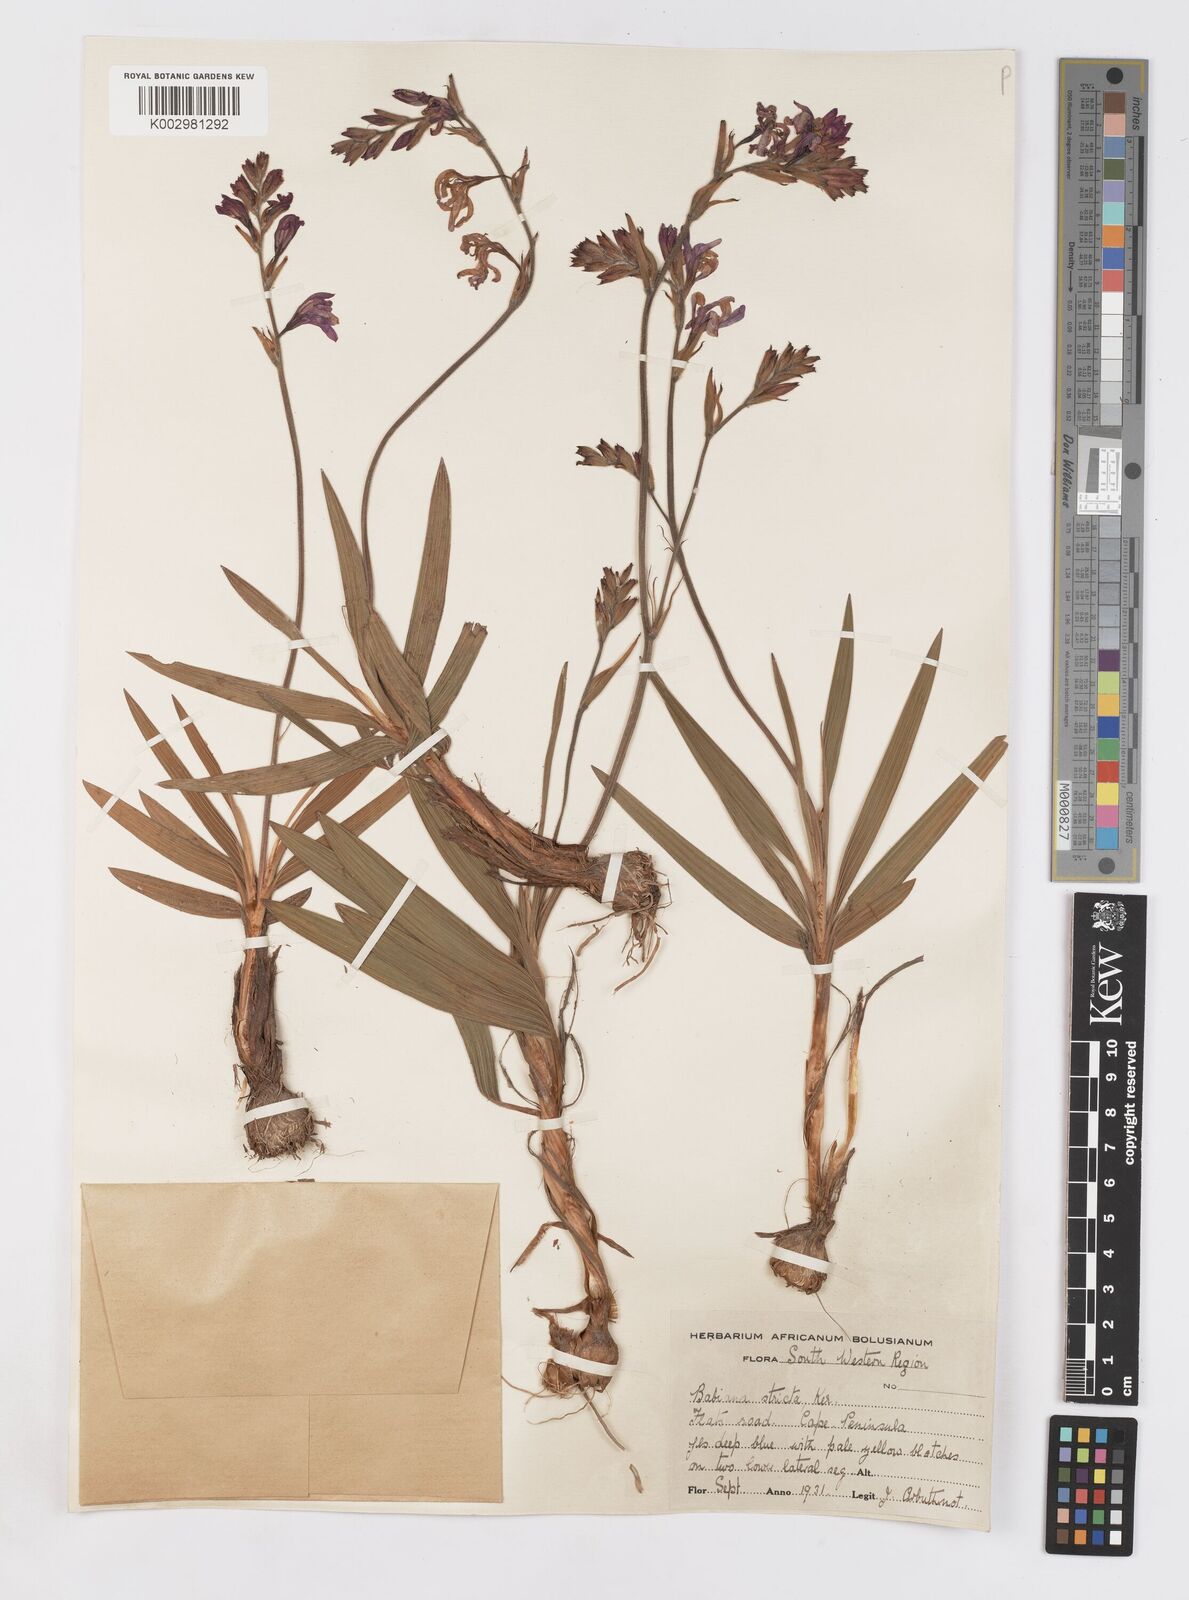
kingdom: Plantae
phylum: Tracheophyta
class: Liliopsida
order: Asparagales
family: Iridaceae
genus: Babiana
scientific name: Babiana nervosa
